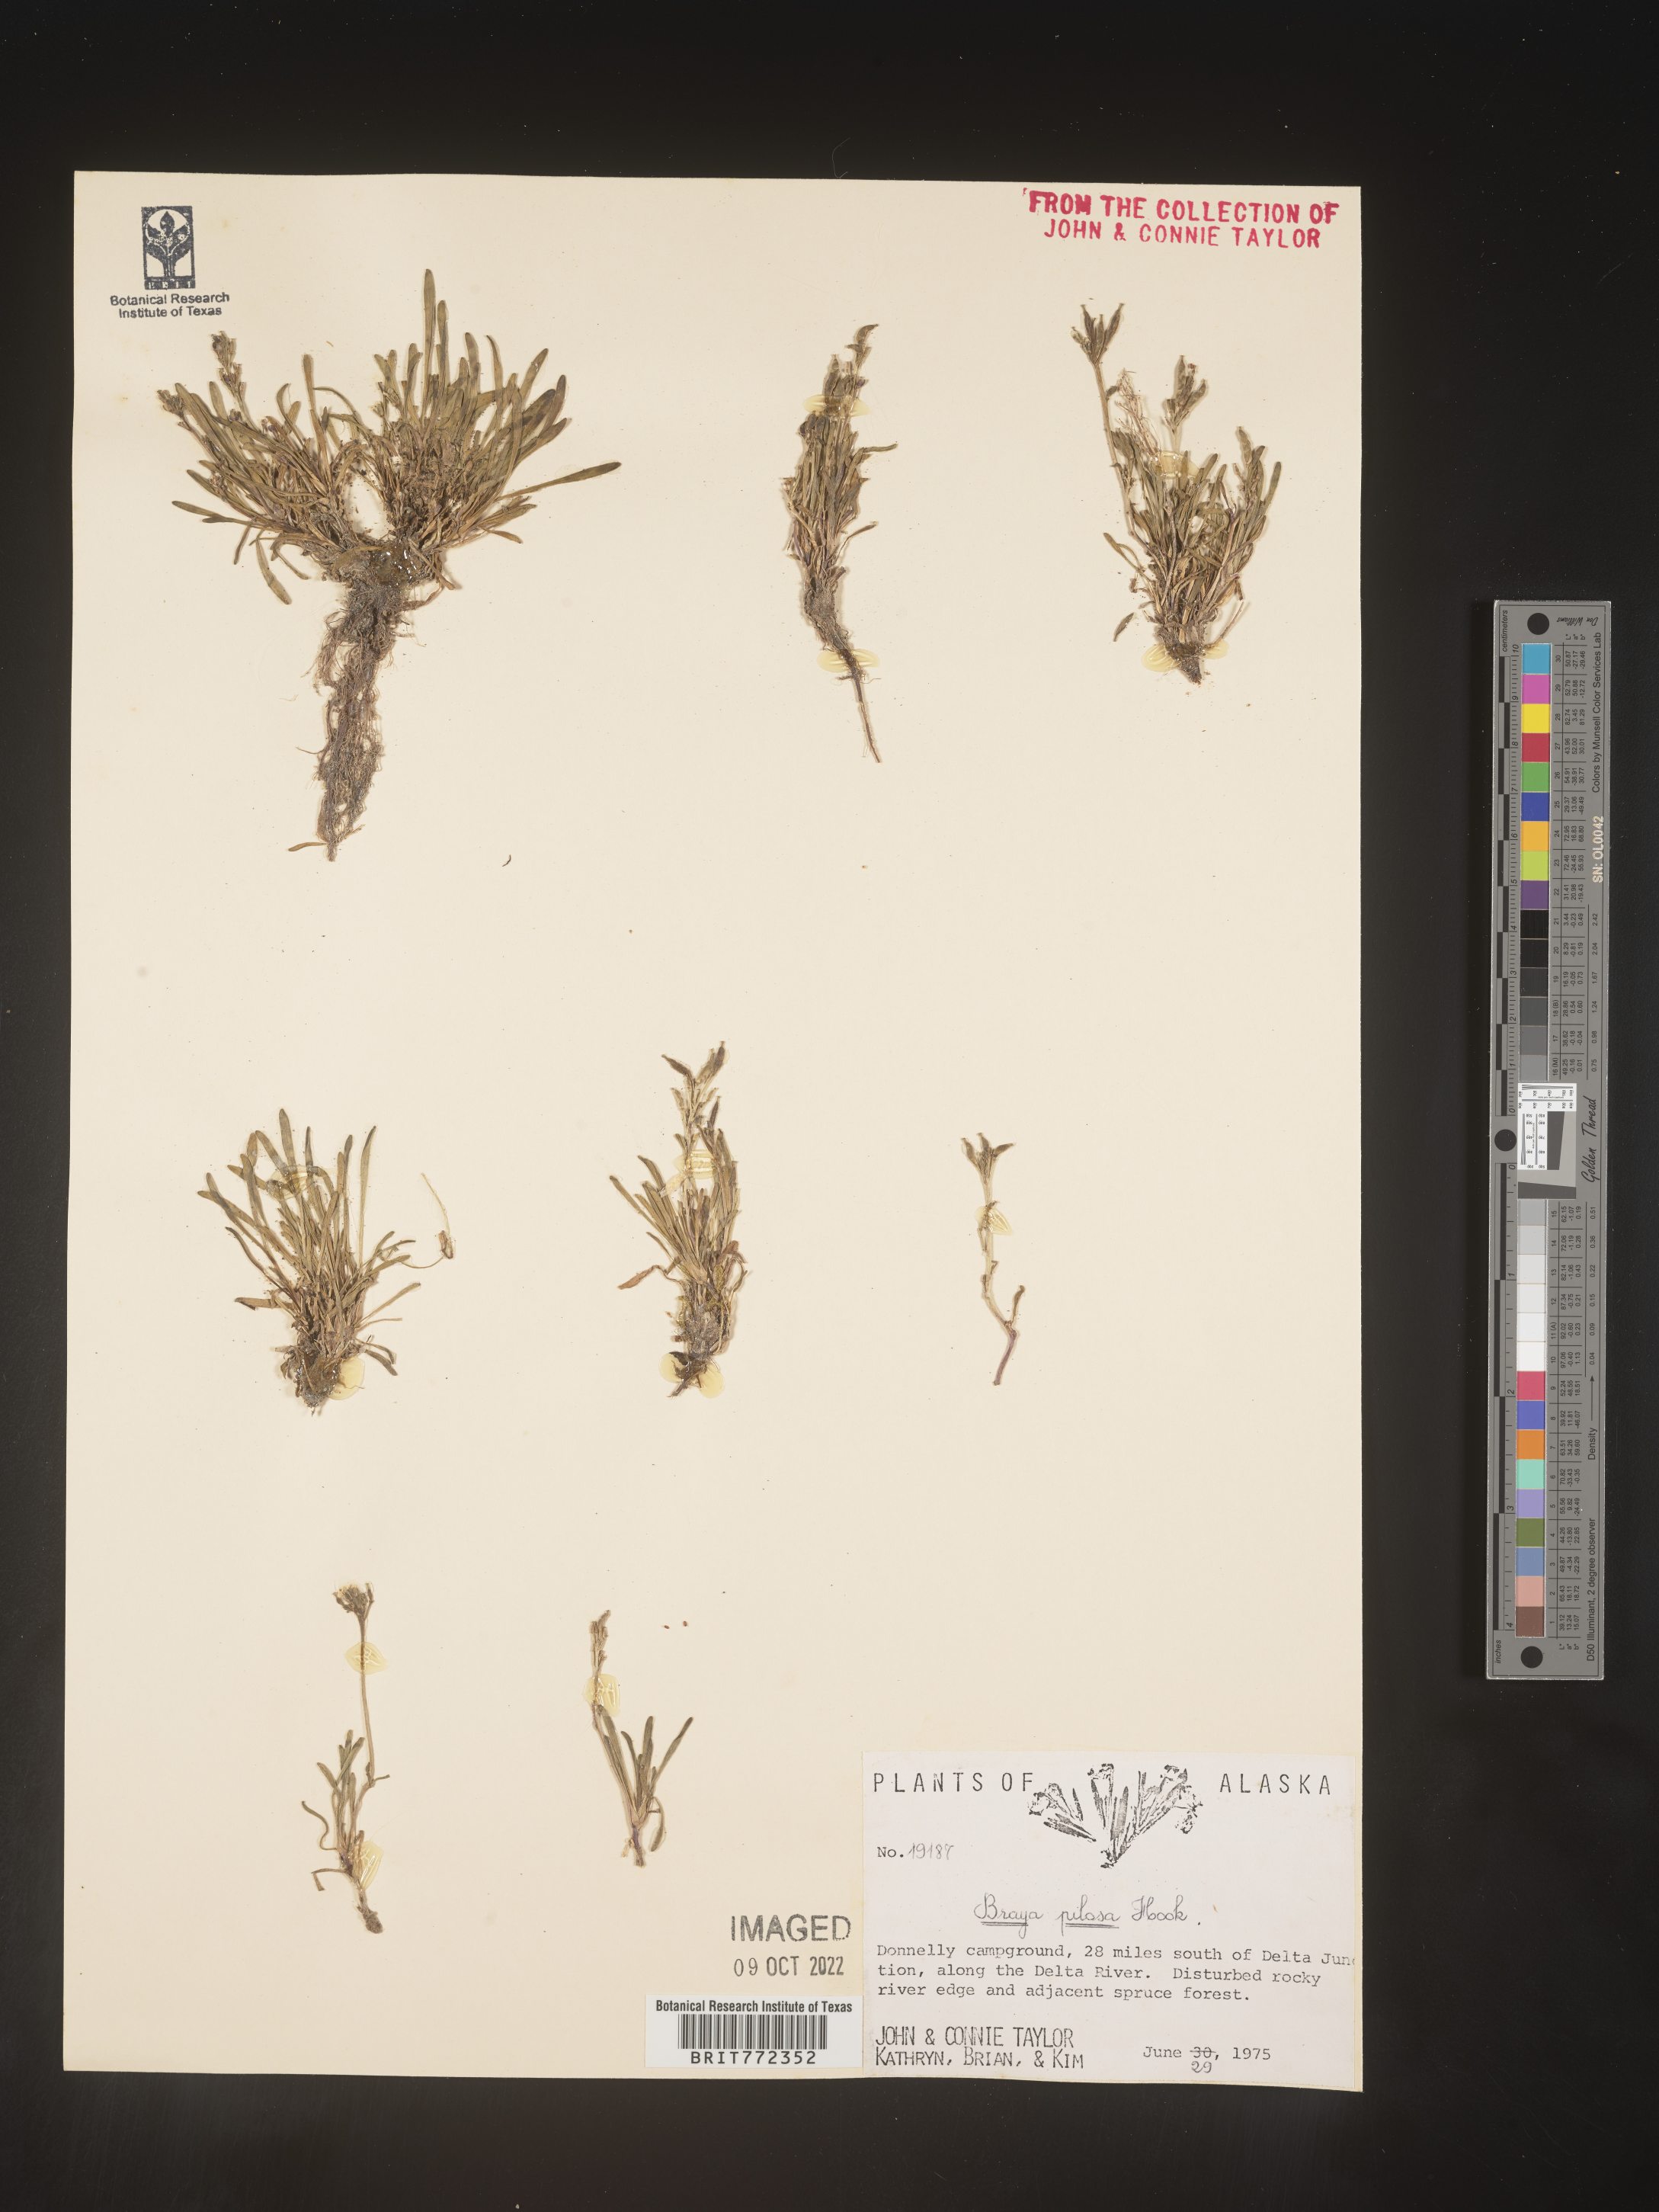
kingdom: Plantae
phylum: Tracheophyta
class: Magnoliopsida
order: Brassicales
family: Brassicaceae
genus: Braya
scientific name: Braya
